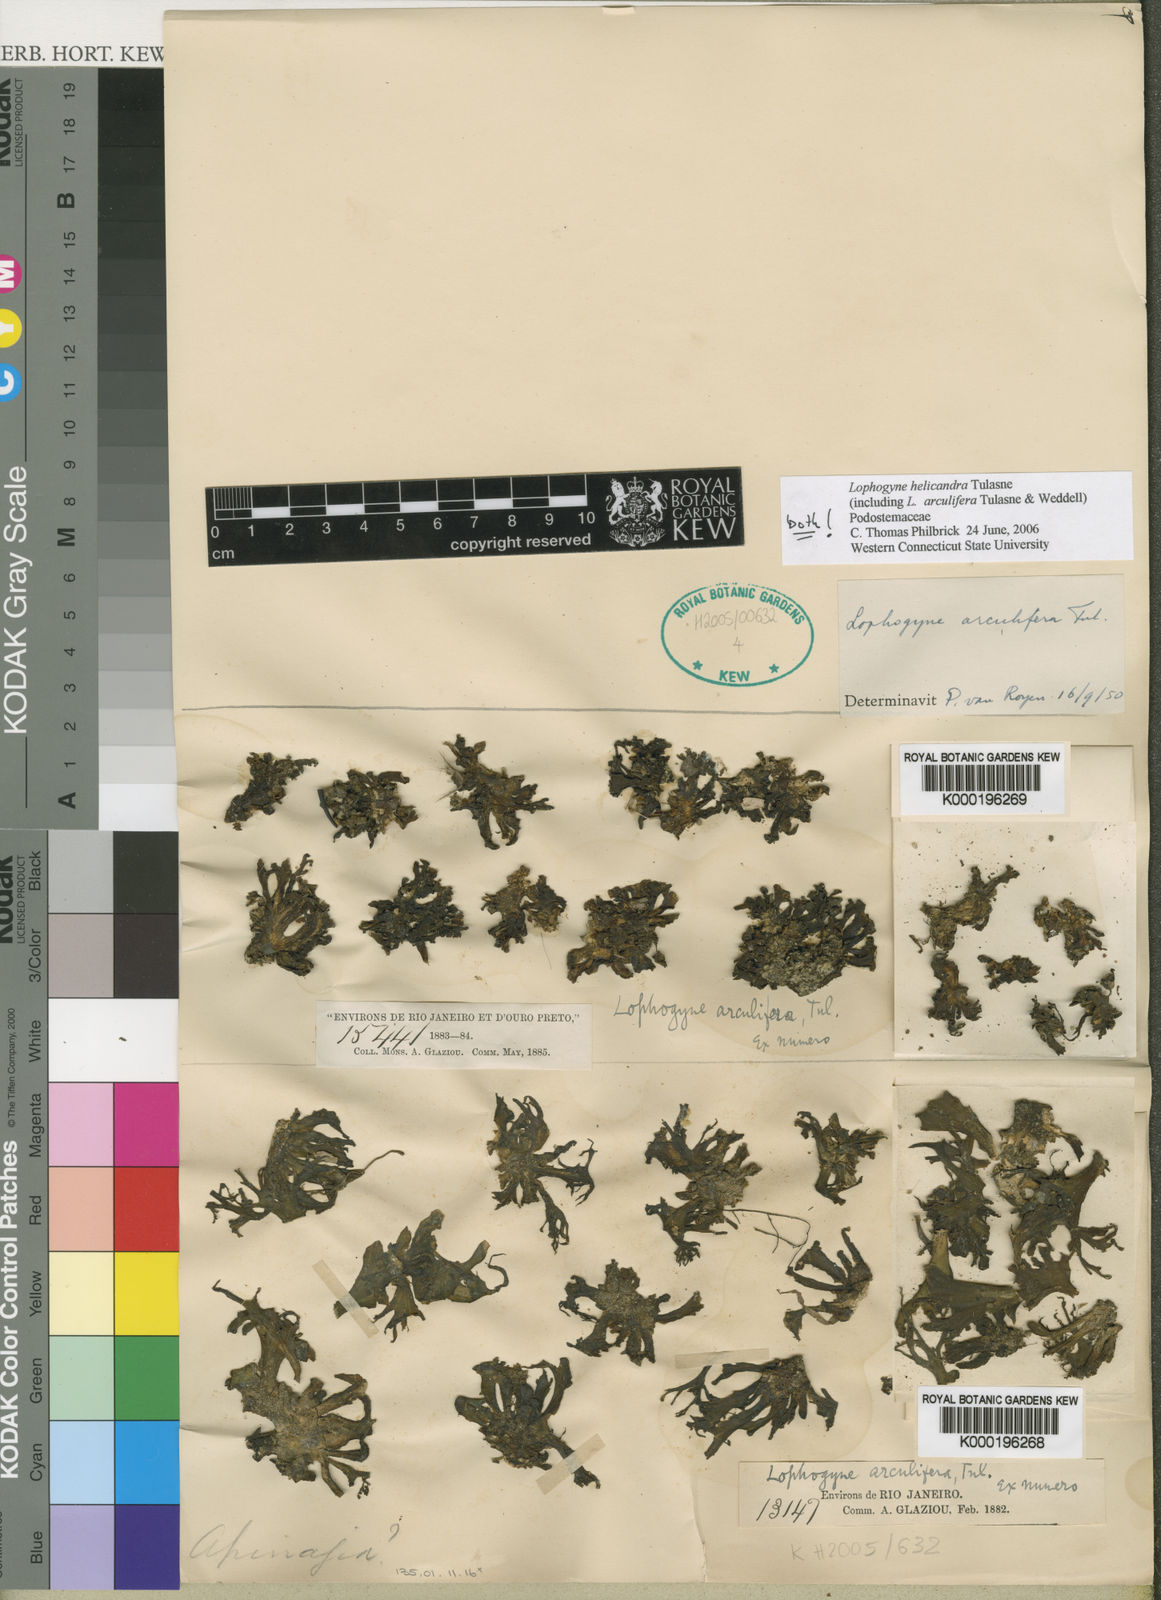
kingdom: Plantae
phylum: Tracheophyta
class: Magnoliopsida
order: Malpighiales
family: Podostemaceae
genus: Lophogyne
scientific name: Lophogyne lacunosa
